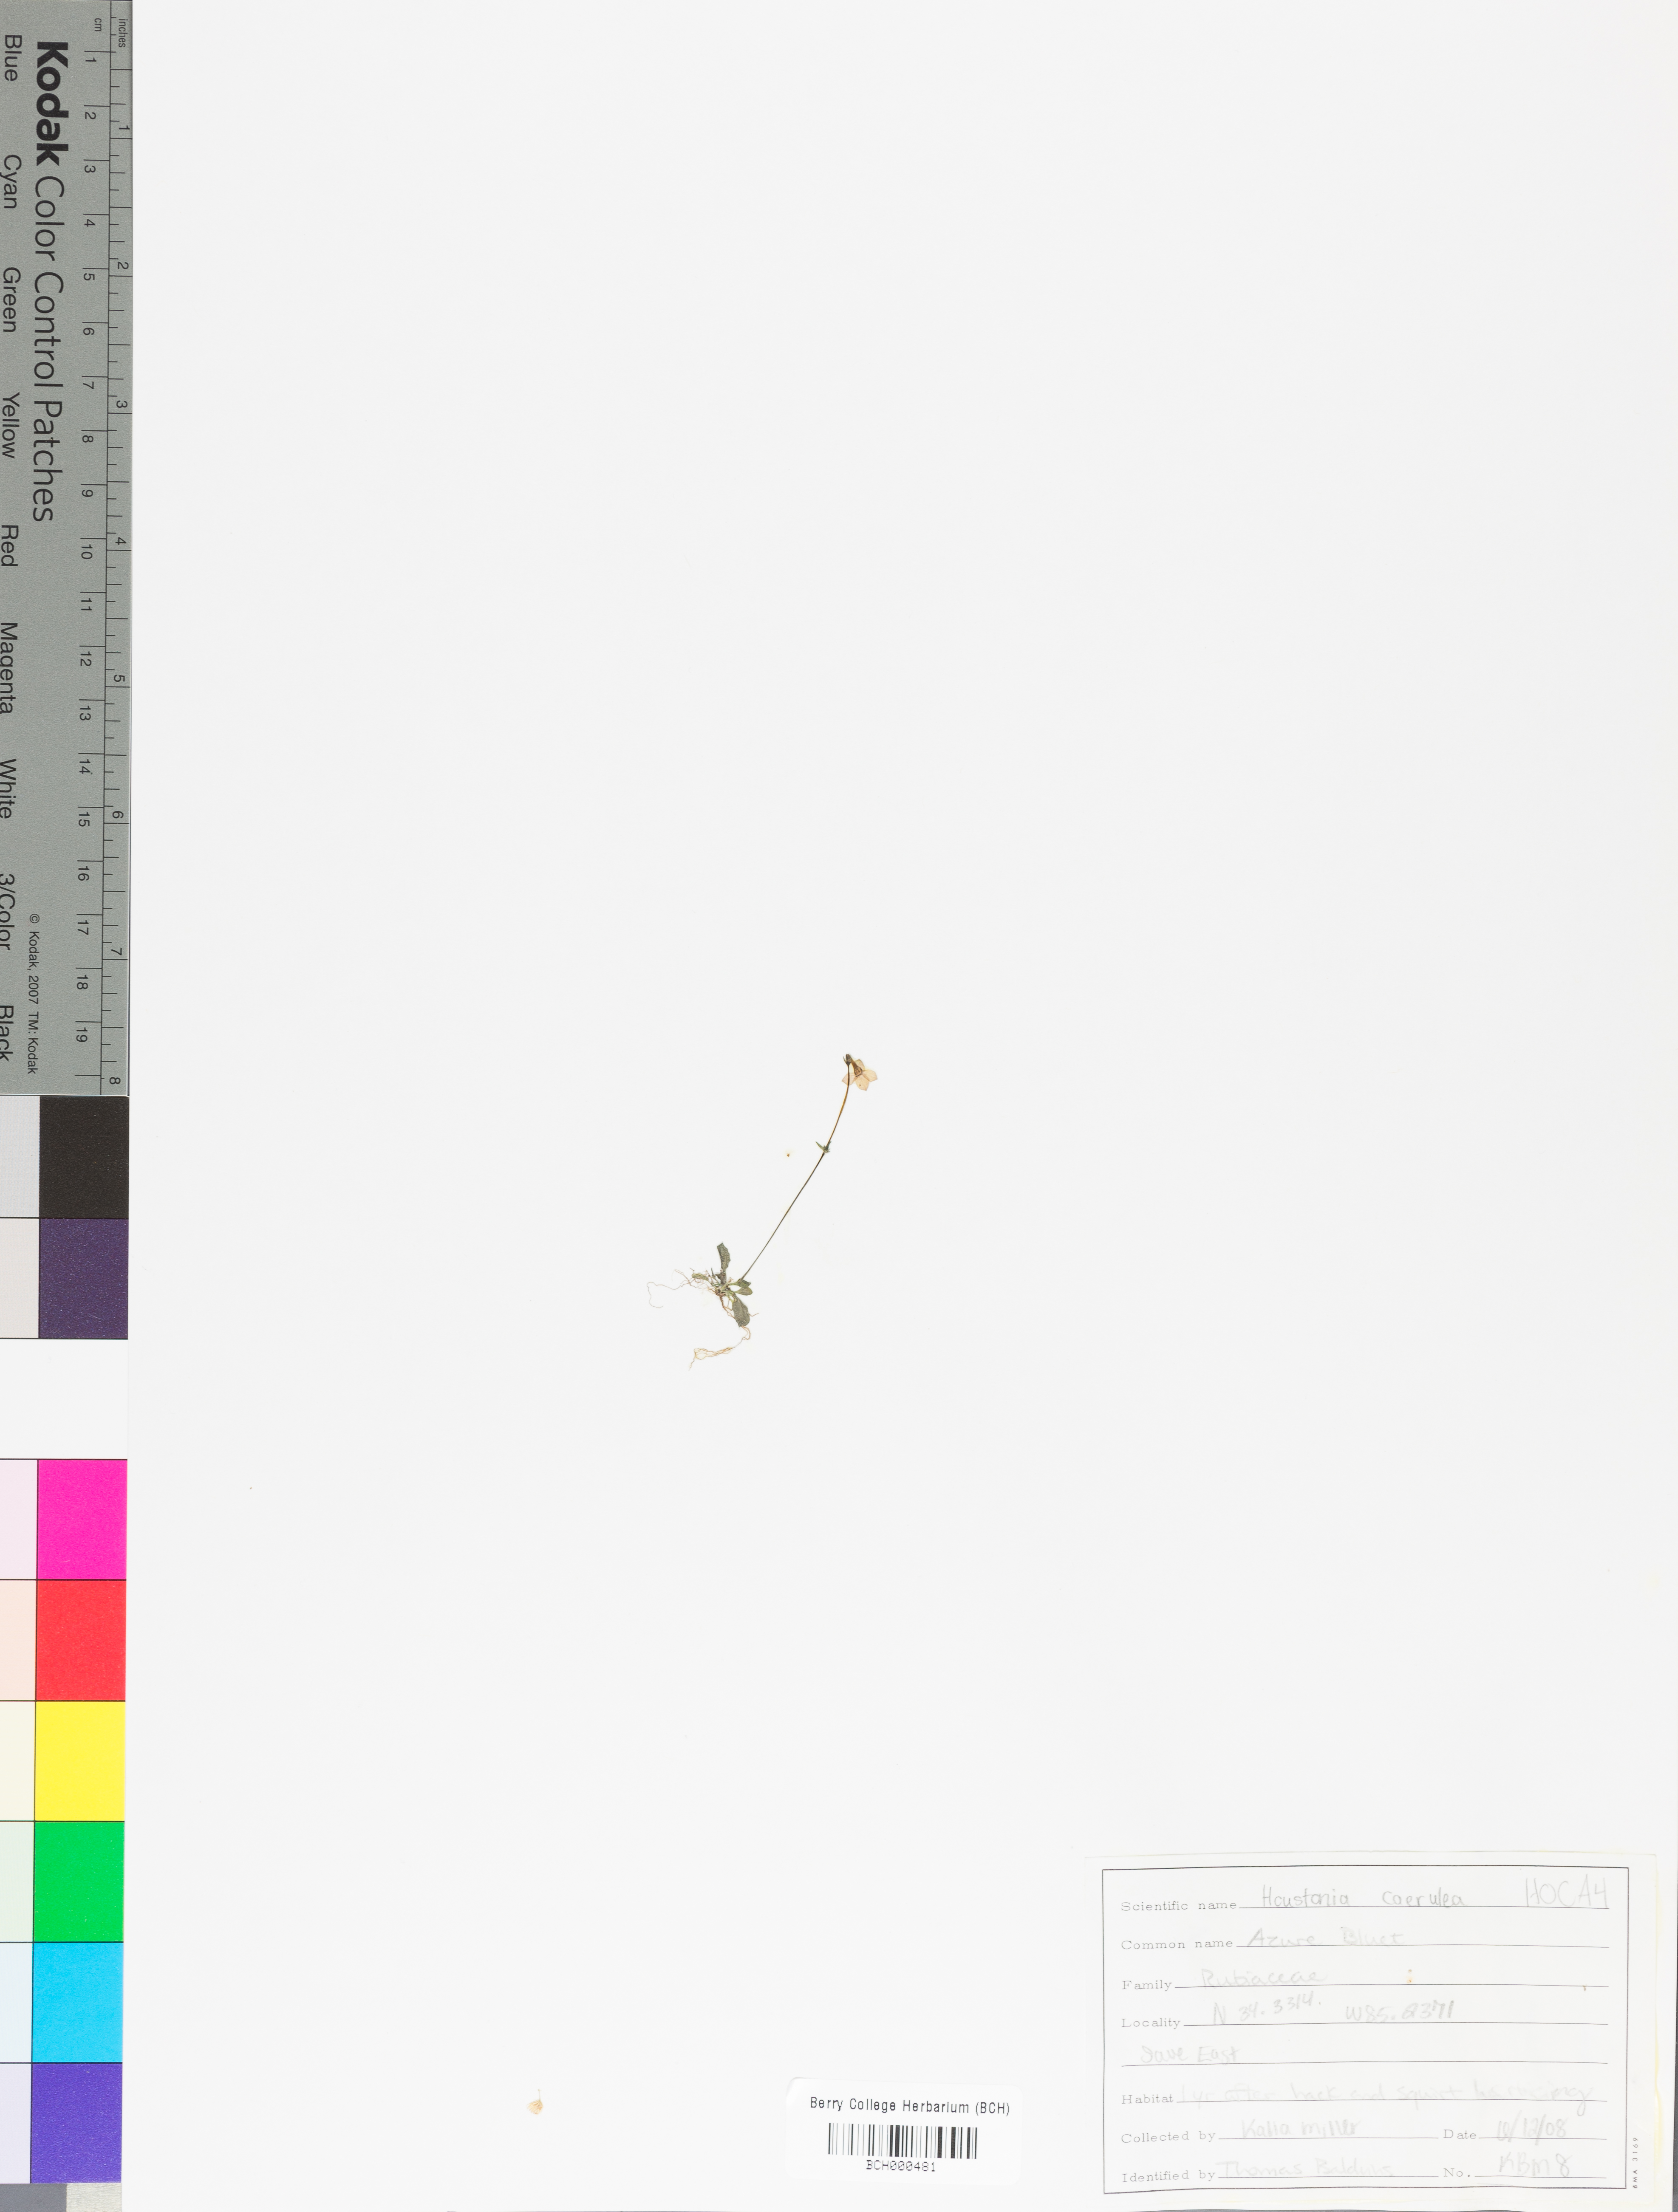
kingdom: Plantae
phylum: Tracheophyta
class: Magnoliopsida
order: Gentianales
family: Rubiaceae
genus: Houstonia
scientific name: Houstonia caerulea
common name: Bluets
